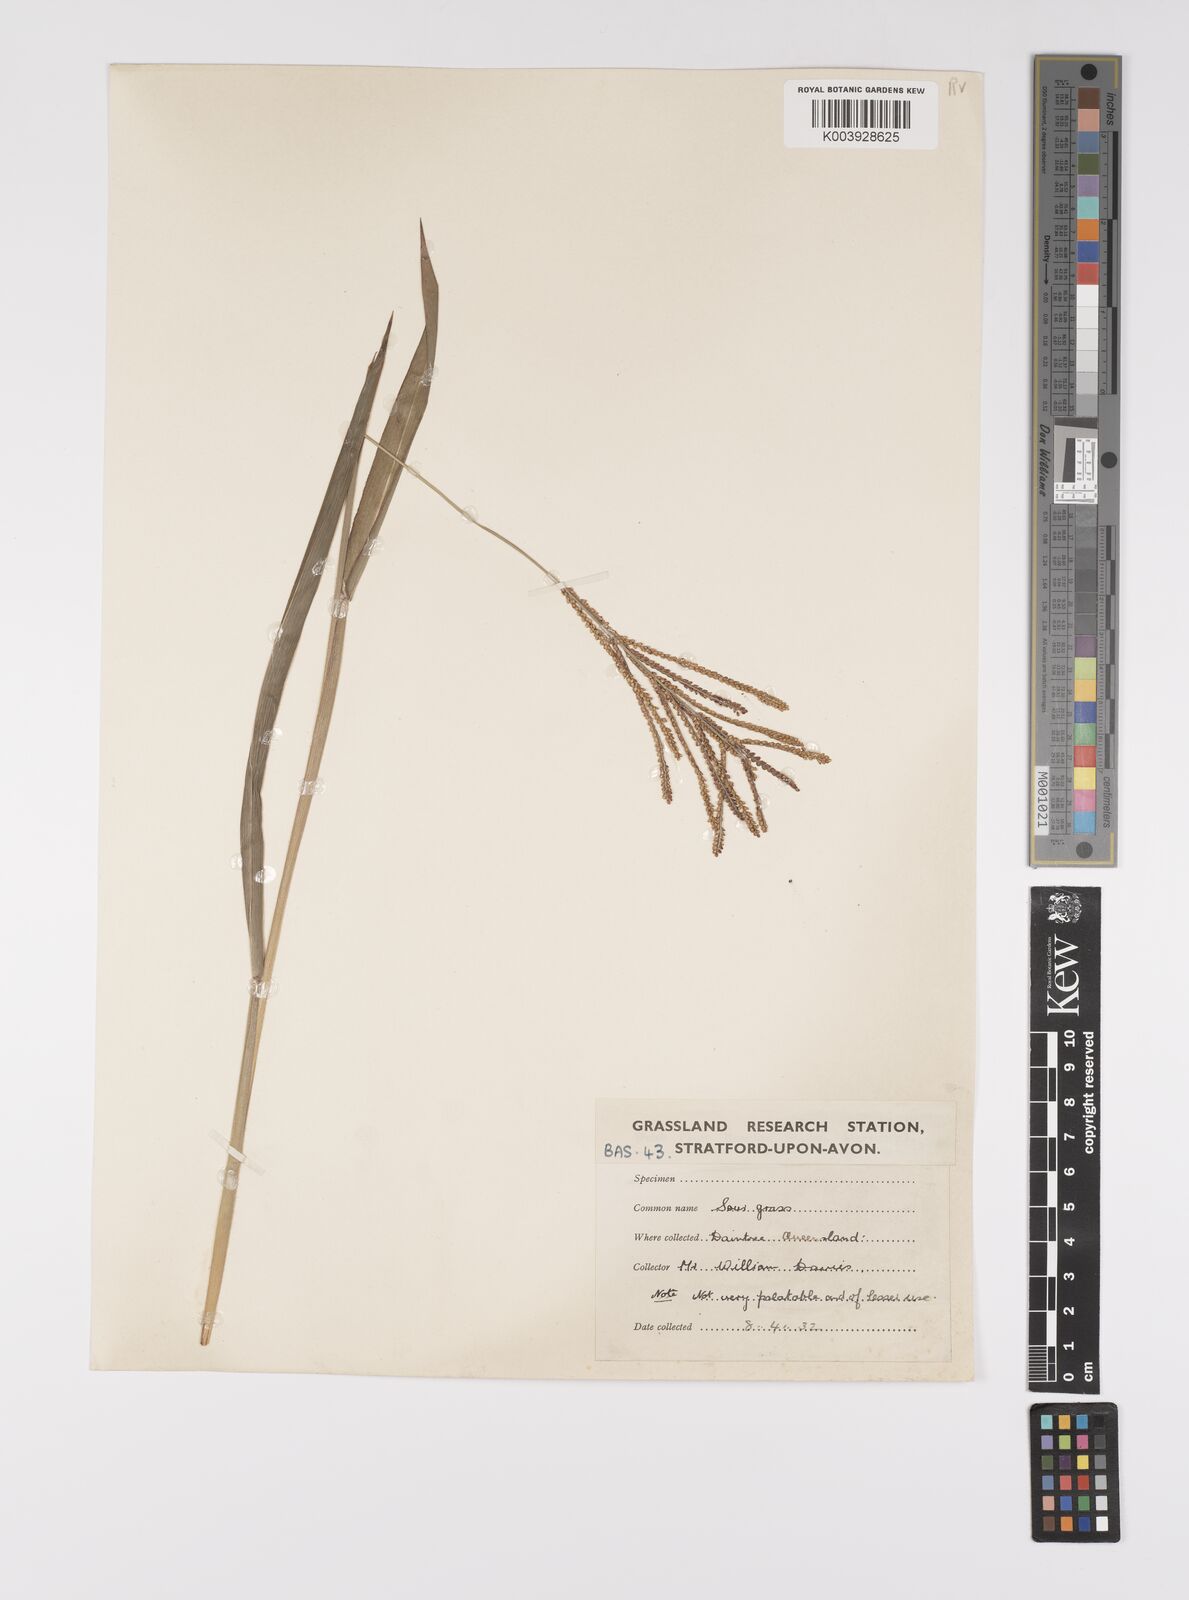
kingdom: Plantae
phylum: Tracheophyta
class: Liliopsida
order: Poales
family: Poaceae
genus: Paspalum
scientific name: Paspalum paniculatum
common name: Arrocillo
